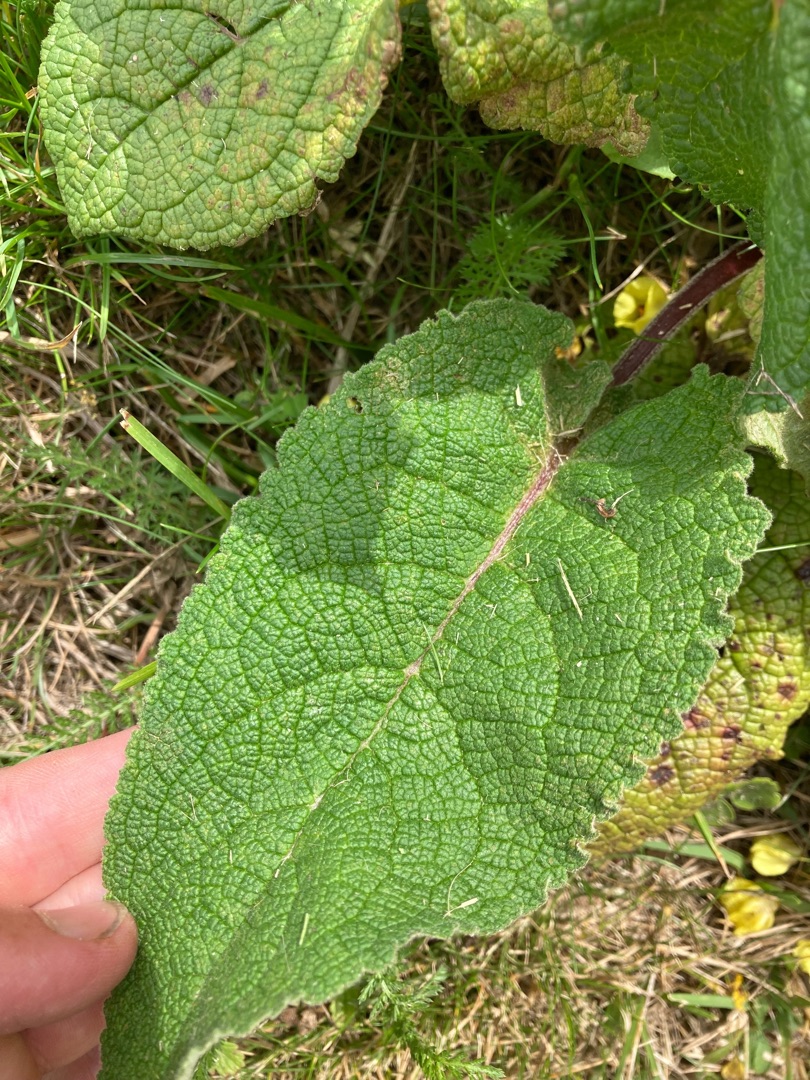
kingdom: Plantae
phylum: Tracheophyta
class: Magnoliopsida
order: Lamiales
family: Scrophulariaceae
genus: Verbascum
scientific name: Verbascum nigrum
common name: Mørk kongelys
